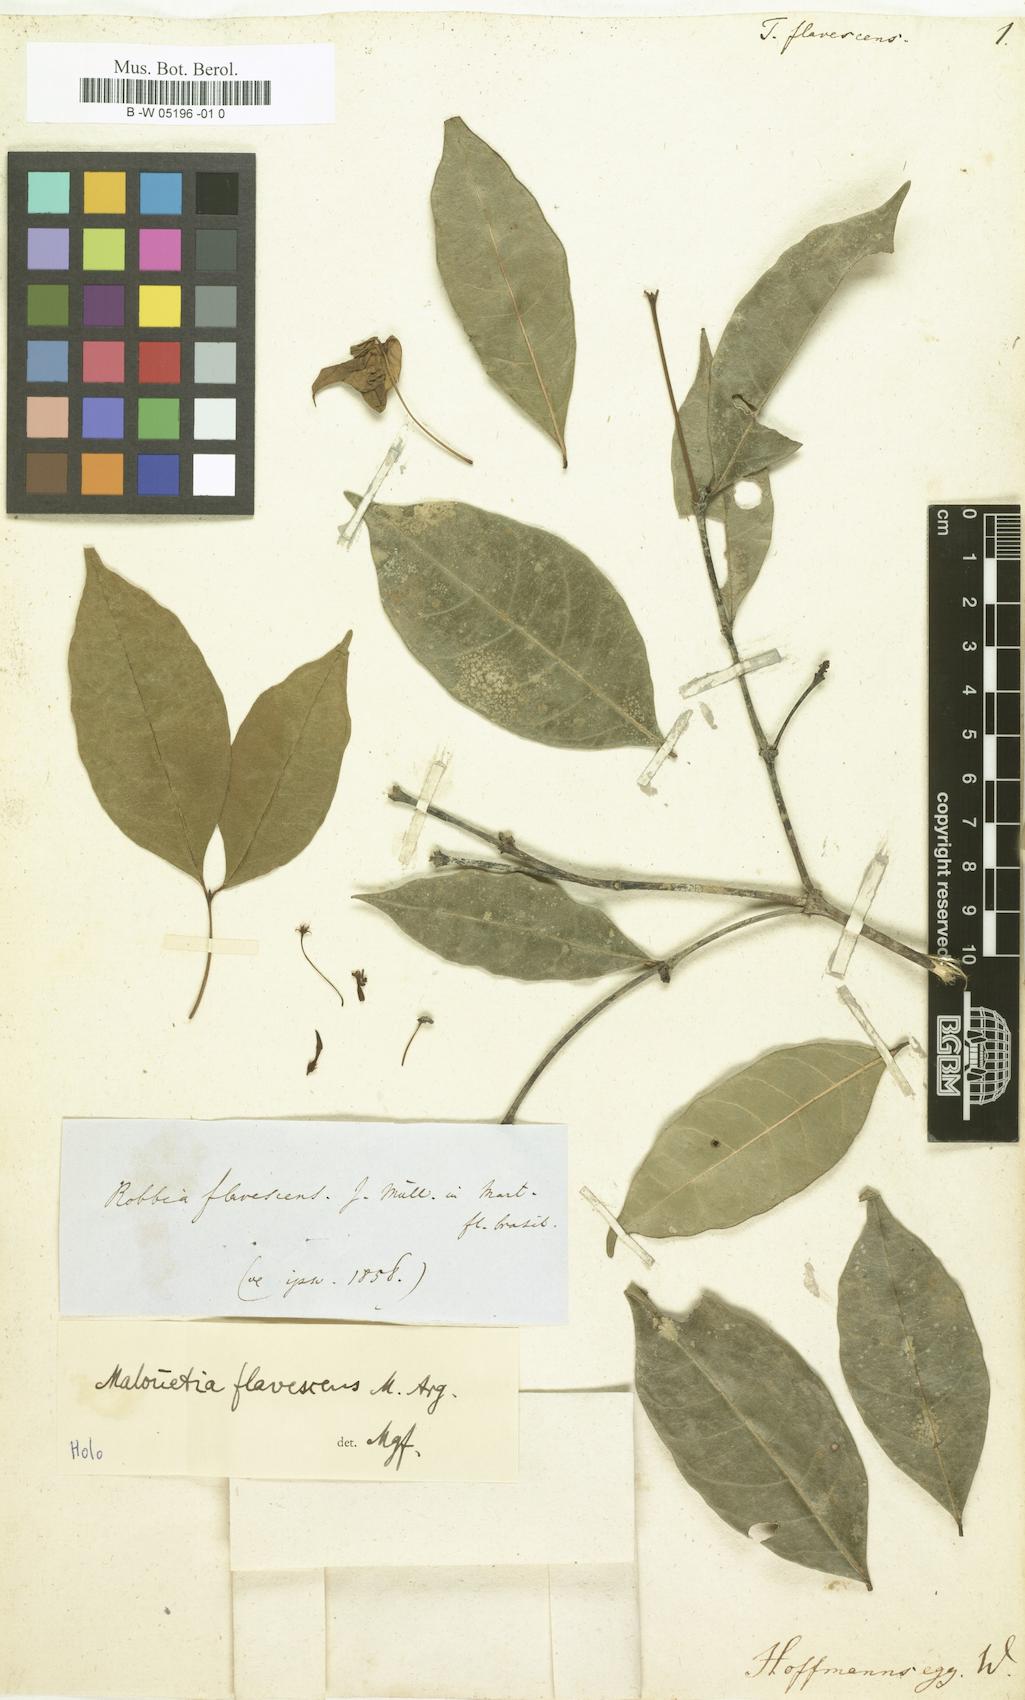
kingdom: Plantae
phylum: Tracheophyta
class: Magnoliopsida
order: Gentianales
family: Apocynaceae
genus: Malouetia
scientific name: Malouetia flavescens
